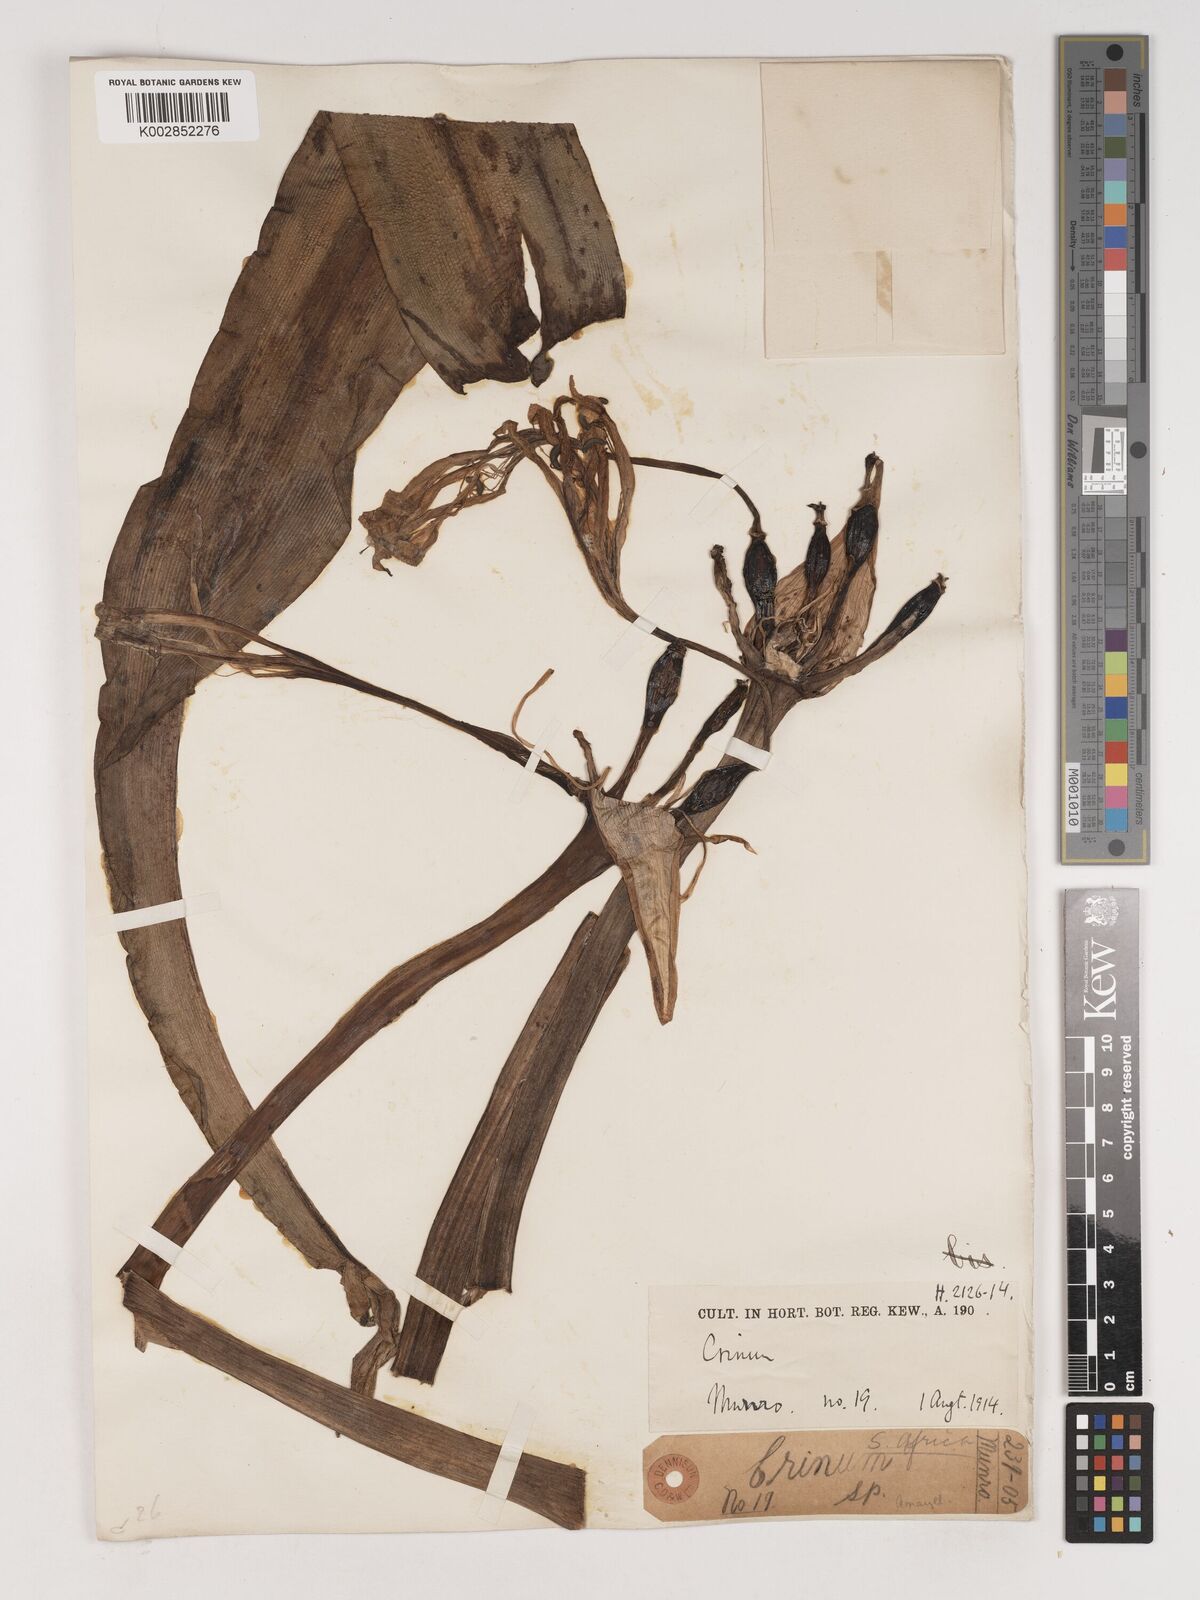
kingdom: Plantae
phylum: Tracheophyta
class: Liliopsida
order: Asparagales
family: Amaryllidaceae
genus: Crinum
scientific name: Crinum
